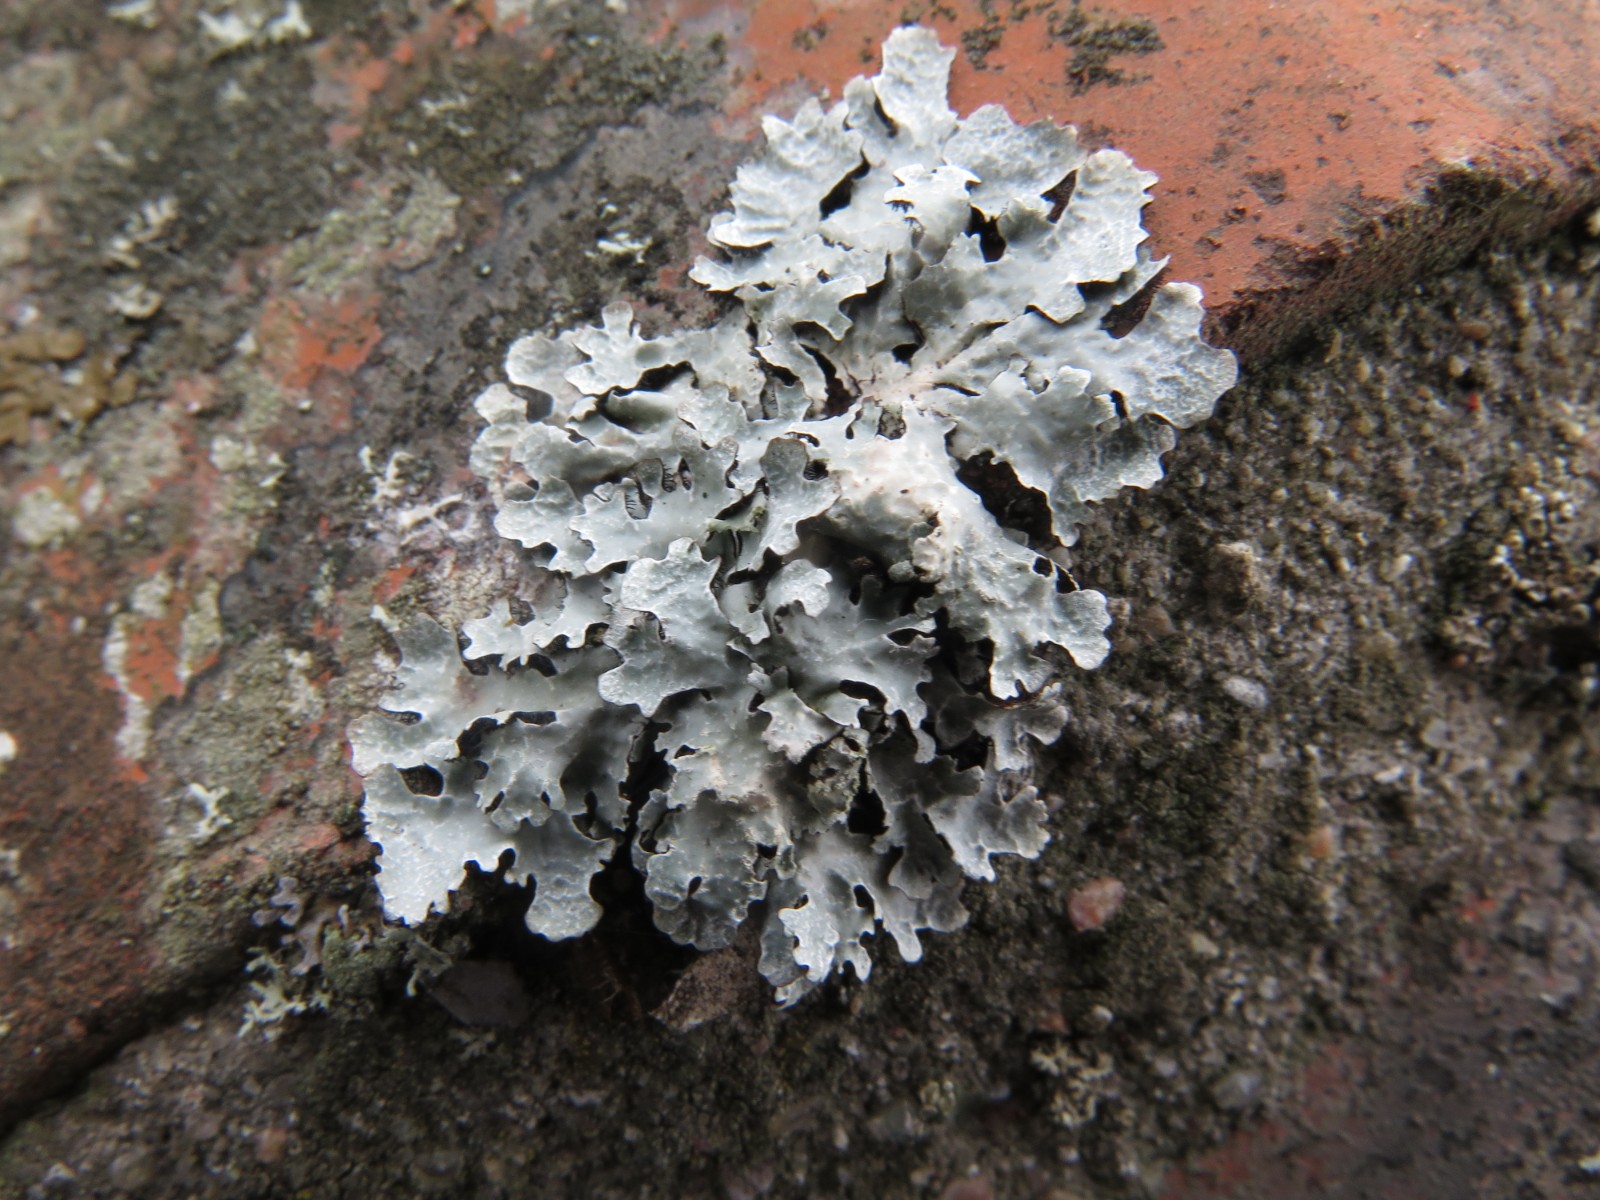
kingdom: Fungi
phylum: Ascomycota
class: Lecanoromycetes
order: Lecanorales
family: Parmeliaceae
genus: Parmelia
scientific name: Parmelia sulcata
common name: rynket skållav
